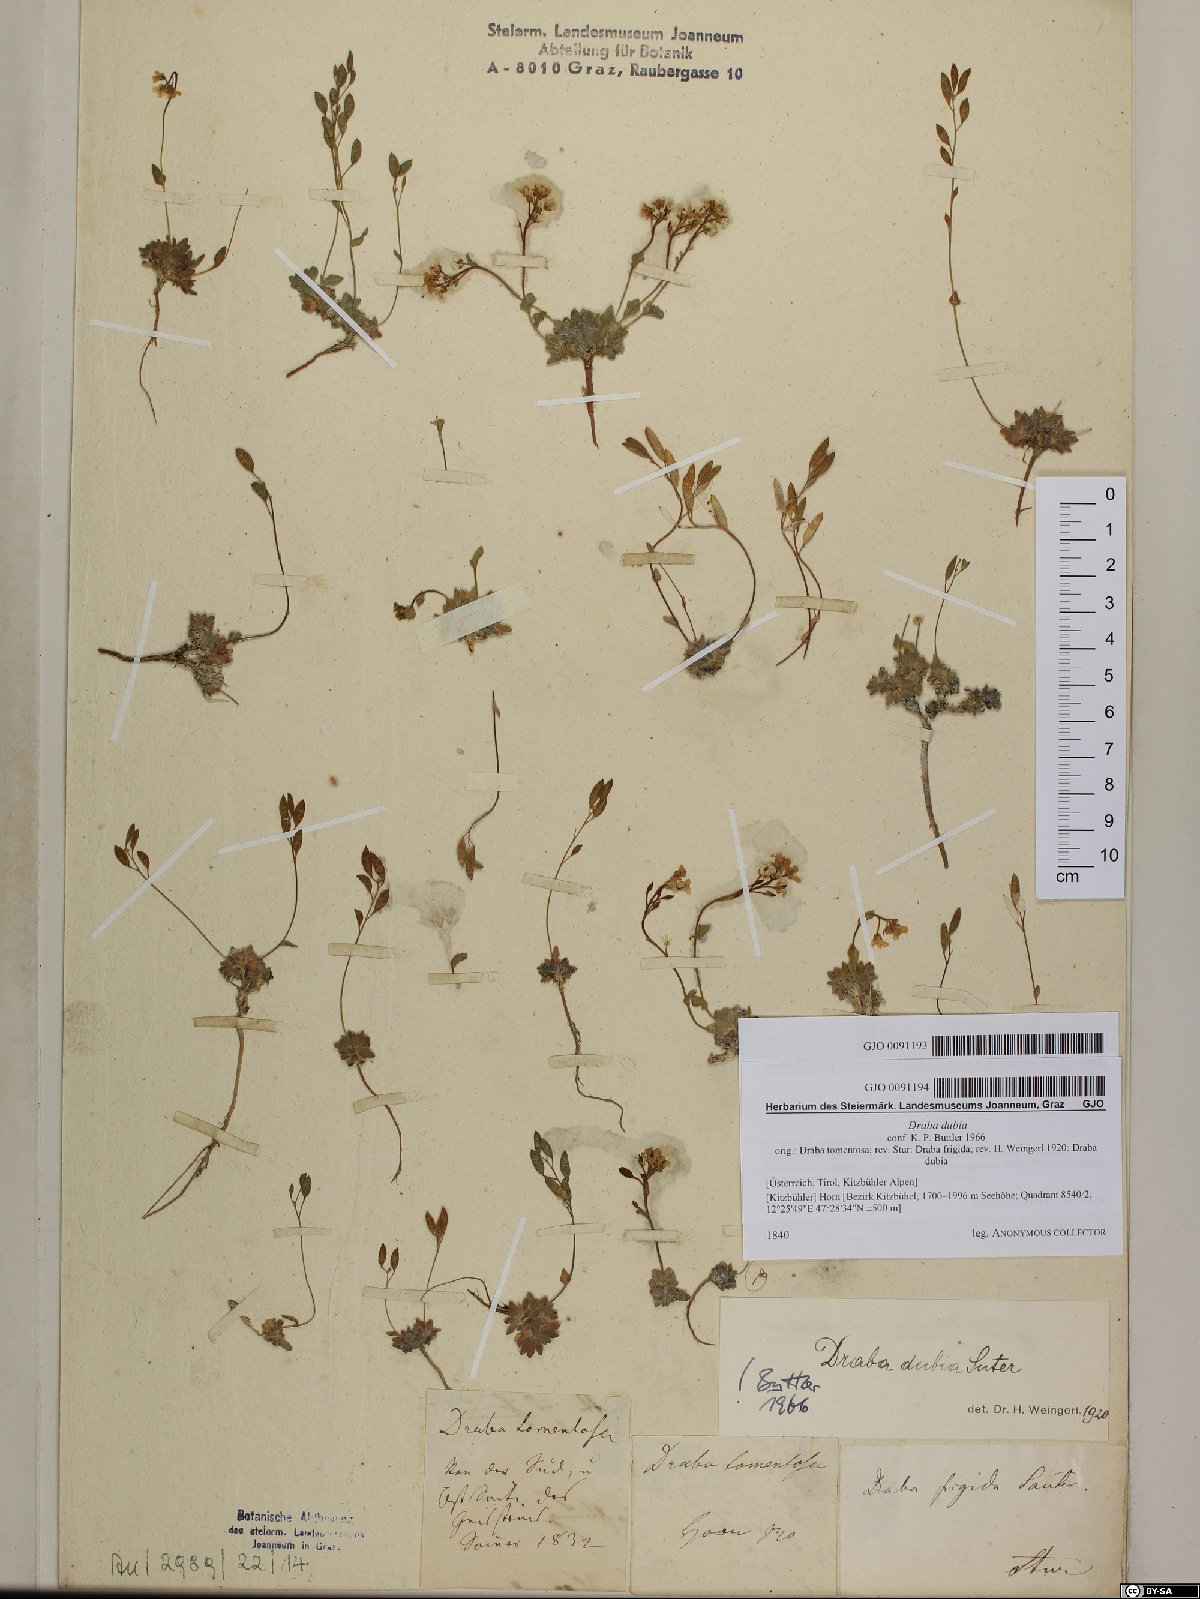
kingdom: Plantae
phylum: Tracheophyta
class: Magnoliopsida
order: Brassicales
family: Brassicaceae
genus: Draba
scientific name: Draba dubia
